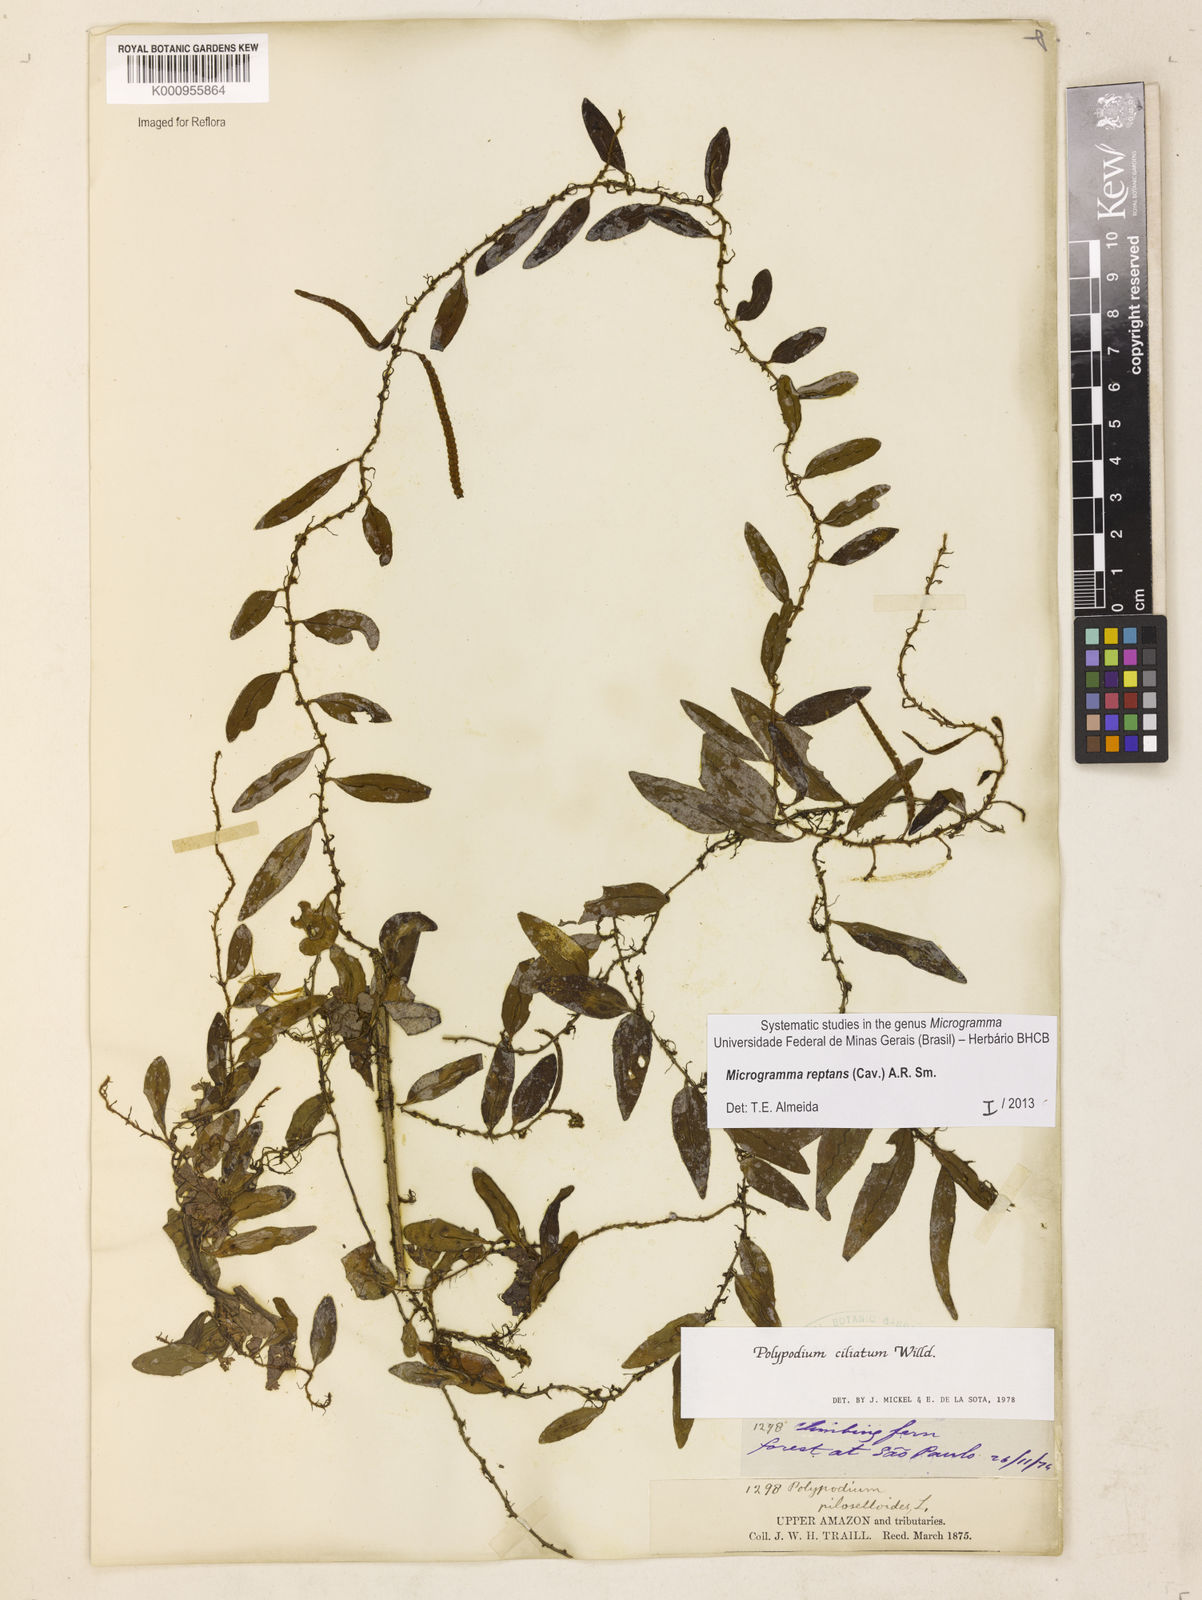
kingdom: Plantae
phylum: Tracheophyta
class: Polypodiopsida
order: Polypodiales
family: Polypodiaceae
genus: Microgramma
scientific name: Microgramma reptans
